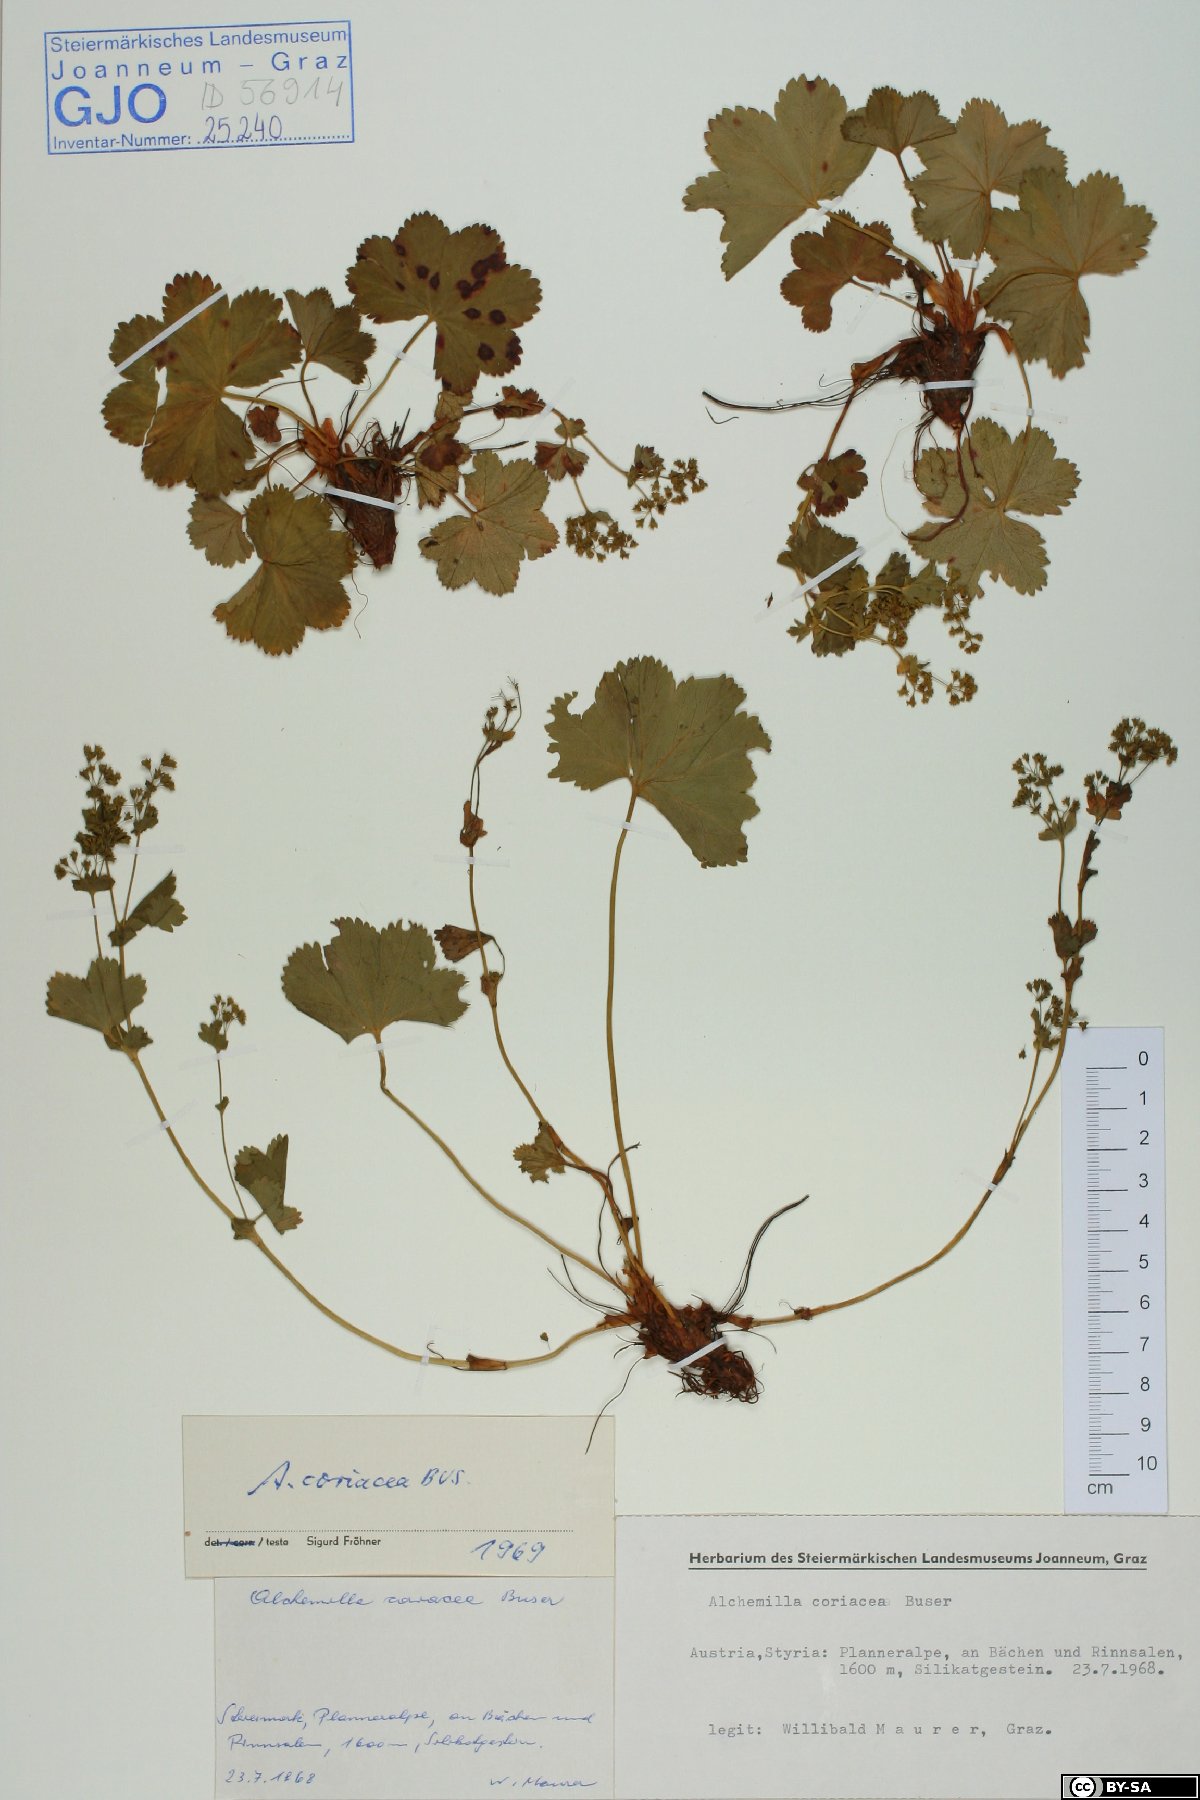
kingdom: Plantae
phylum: Tracheophyta
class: Magnoliopsida
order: Rosales
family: Rosaceae
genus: Alchemilla
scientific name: Alchemilla coriacea
